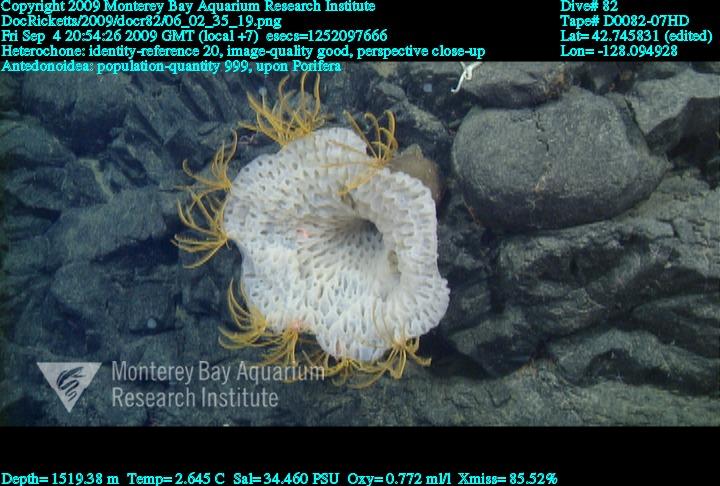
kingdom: Animalia
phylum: Porifera
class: Hexactinellida
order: Sceptrulophora
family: Aphrocallistidae
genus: Heterochone
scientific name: Heterochone
